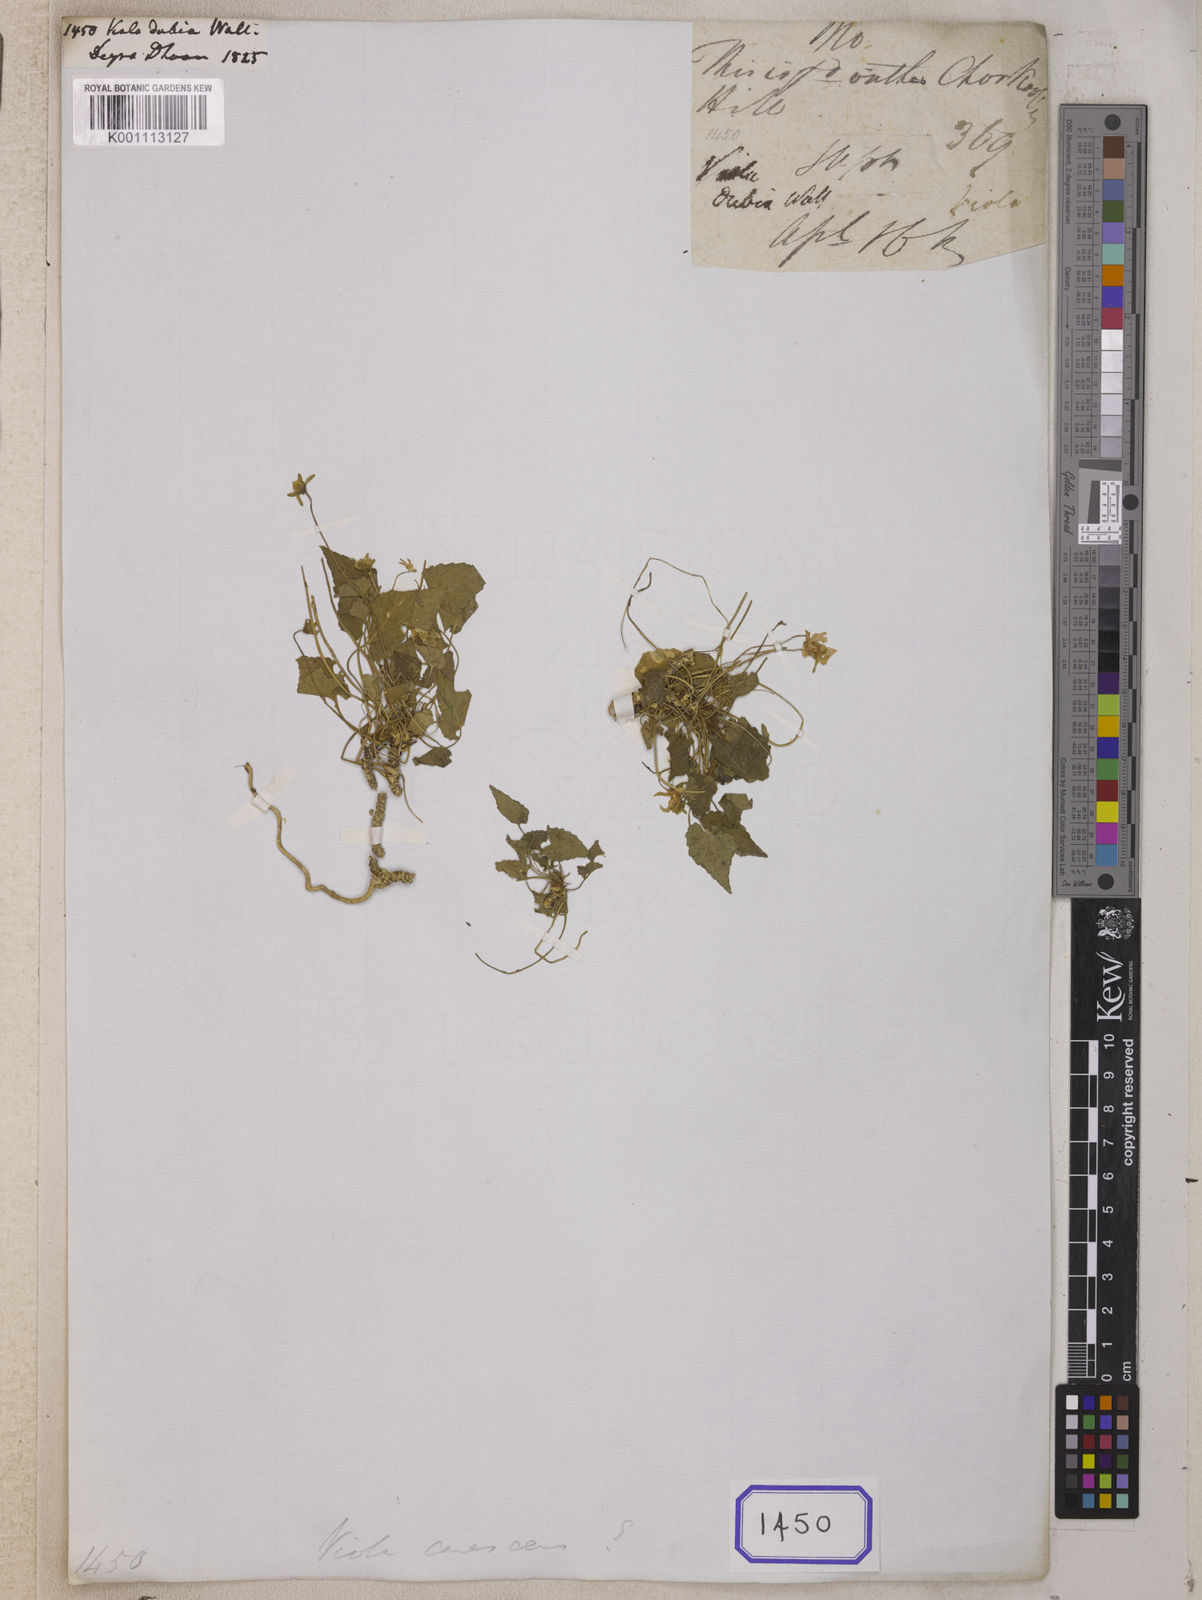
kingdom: Plantae
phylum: Tracheophyta
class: Magnoliopsida
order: Malpighiales
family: Violaceae
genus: Viola
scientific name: Viola pilosa
